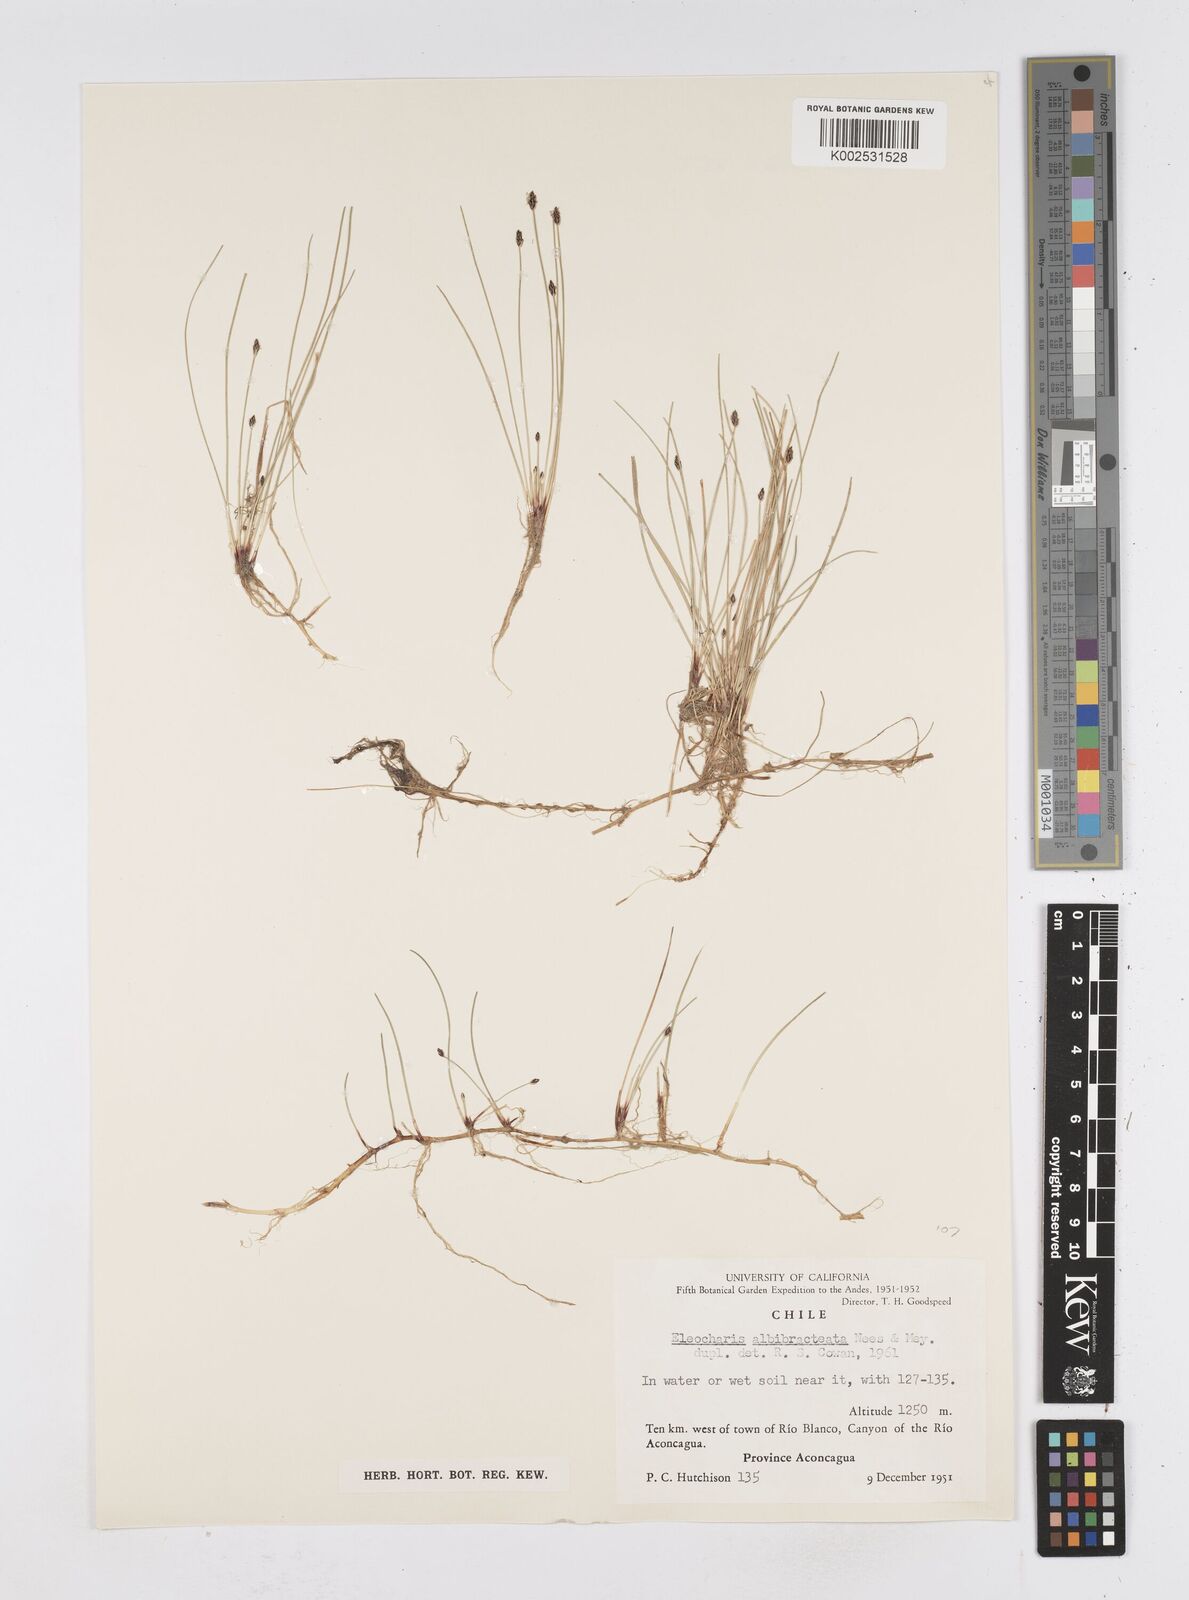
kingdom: Plantae
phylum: Tracheophyta
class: Liliopsida
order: Poales
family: Cyperaceae
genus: Eleocharis
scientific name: Eleocharis albibracteata
